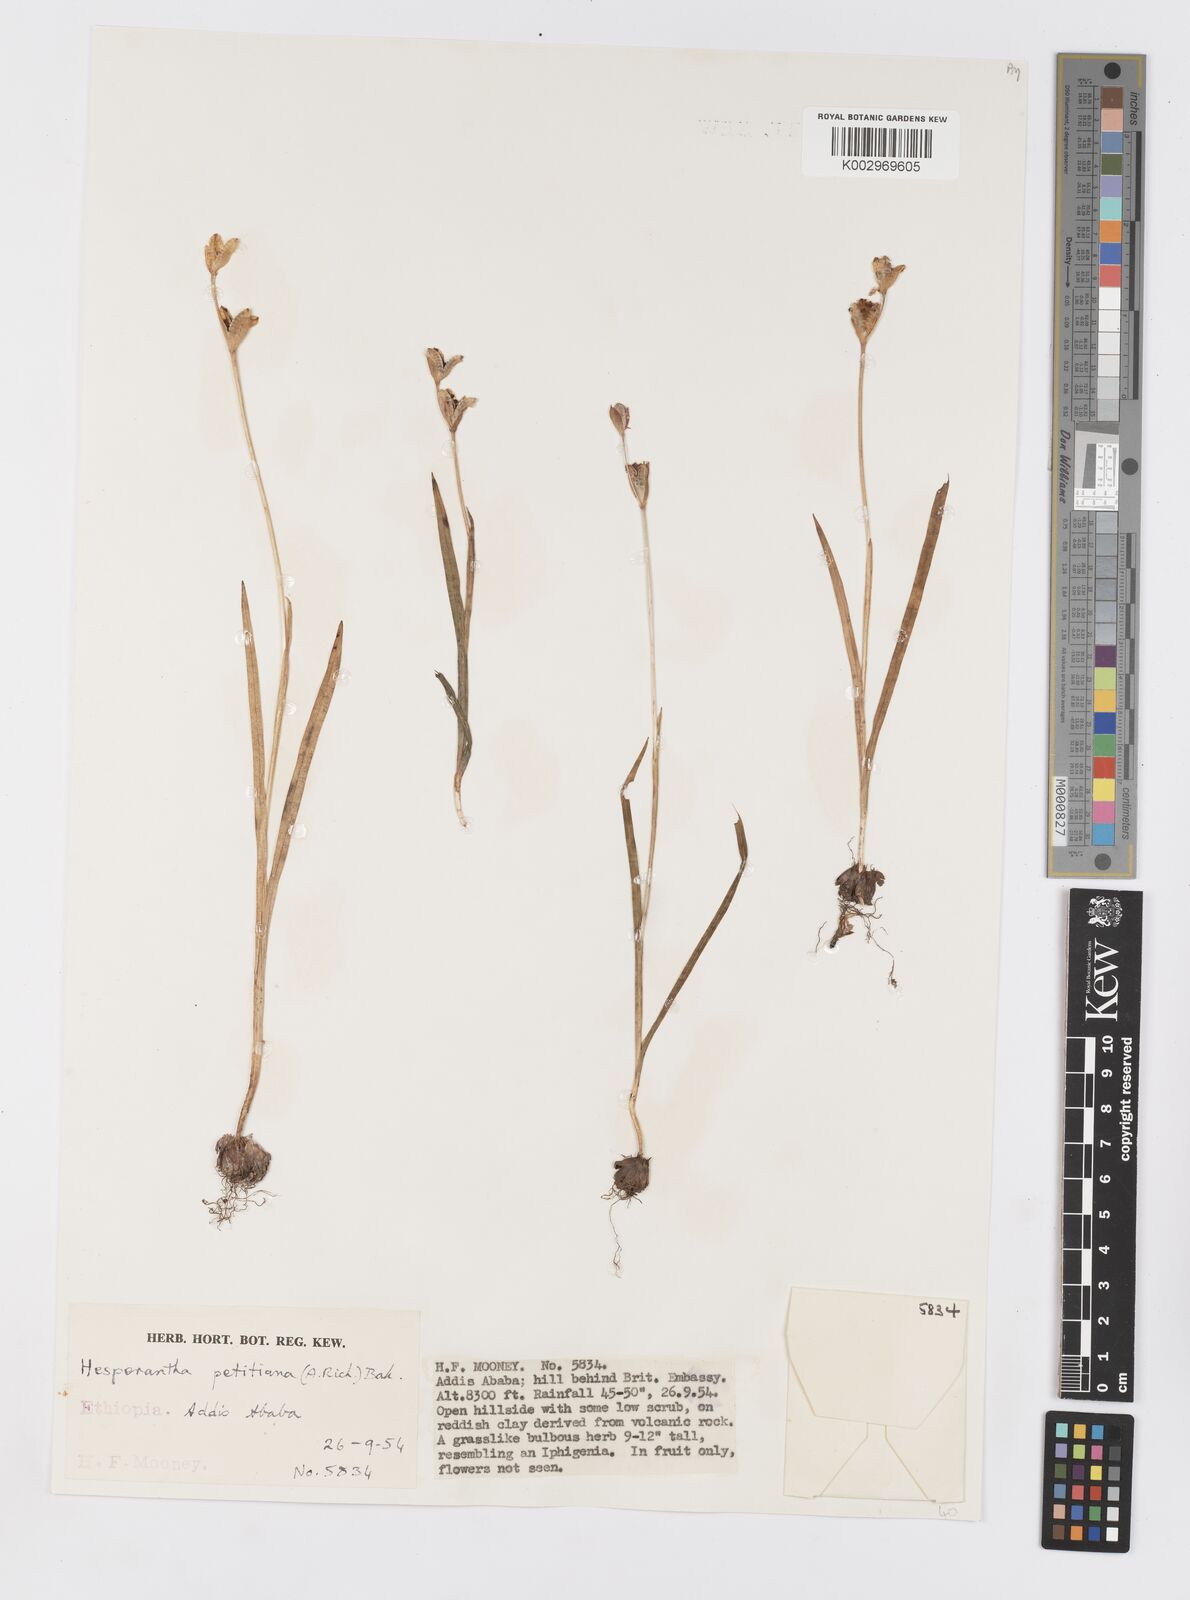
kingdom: Plantae
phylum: Tracheophyta
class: Liliopsida
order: Asparagales
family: Iridaceae
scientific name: Iridaceae
